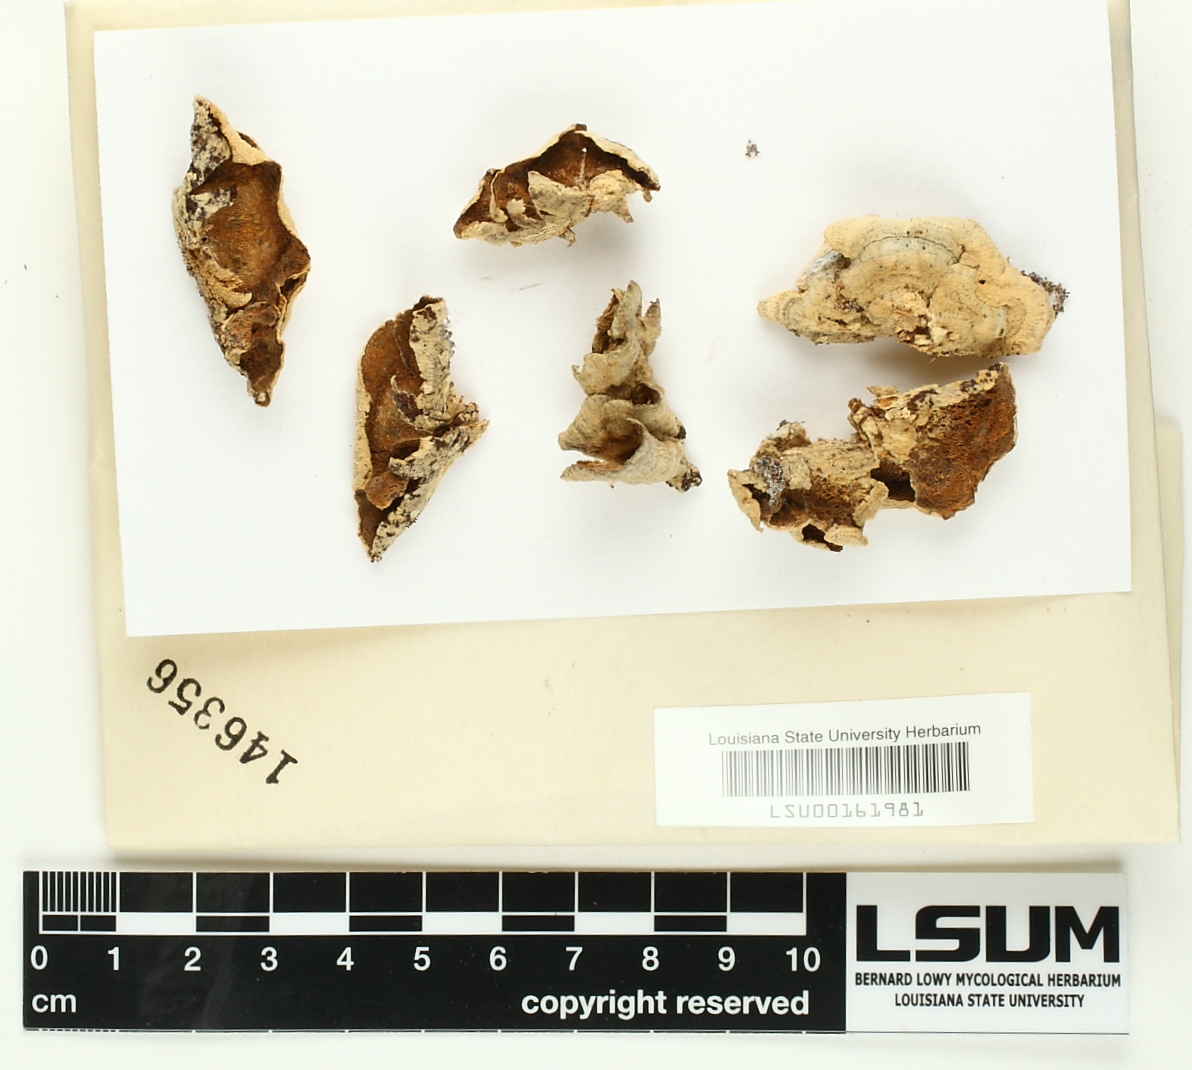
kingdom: Fungi
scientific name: Fungi
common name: Fungi
